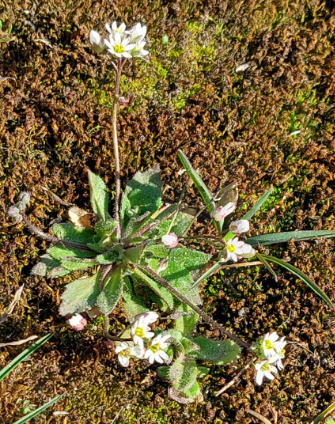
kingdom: Plantae
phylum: Tracheophyta
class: Magnoliopsida
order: Brassicales
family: Brassicaceae
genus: Draba
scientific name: Draba verna
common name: Vår-gæslingeblomst
